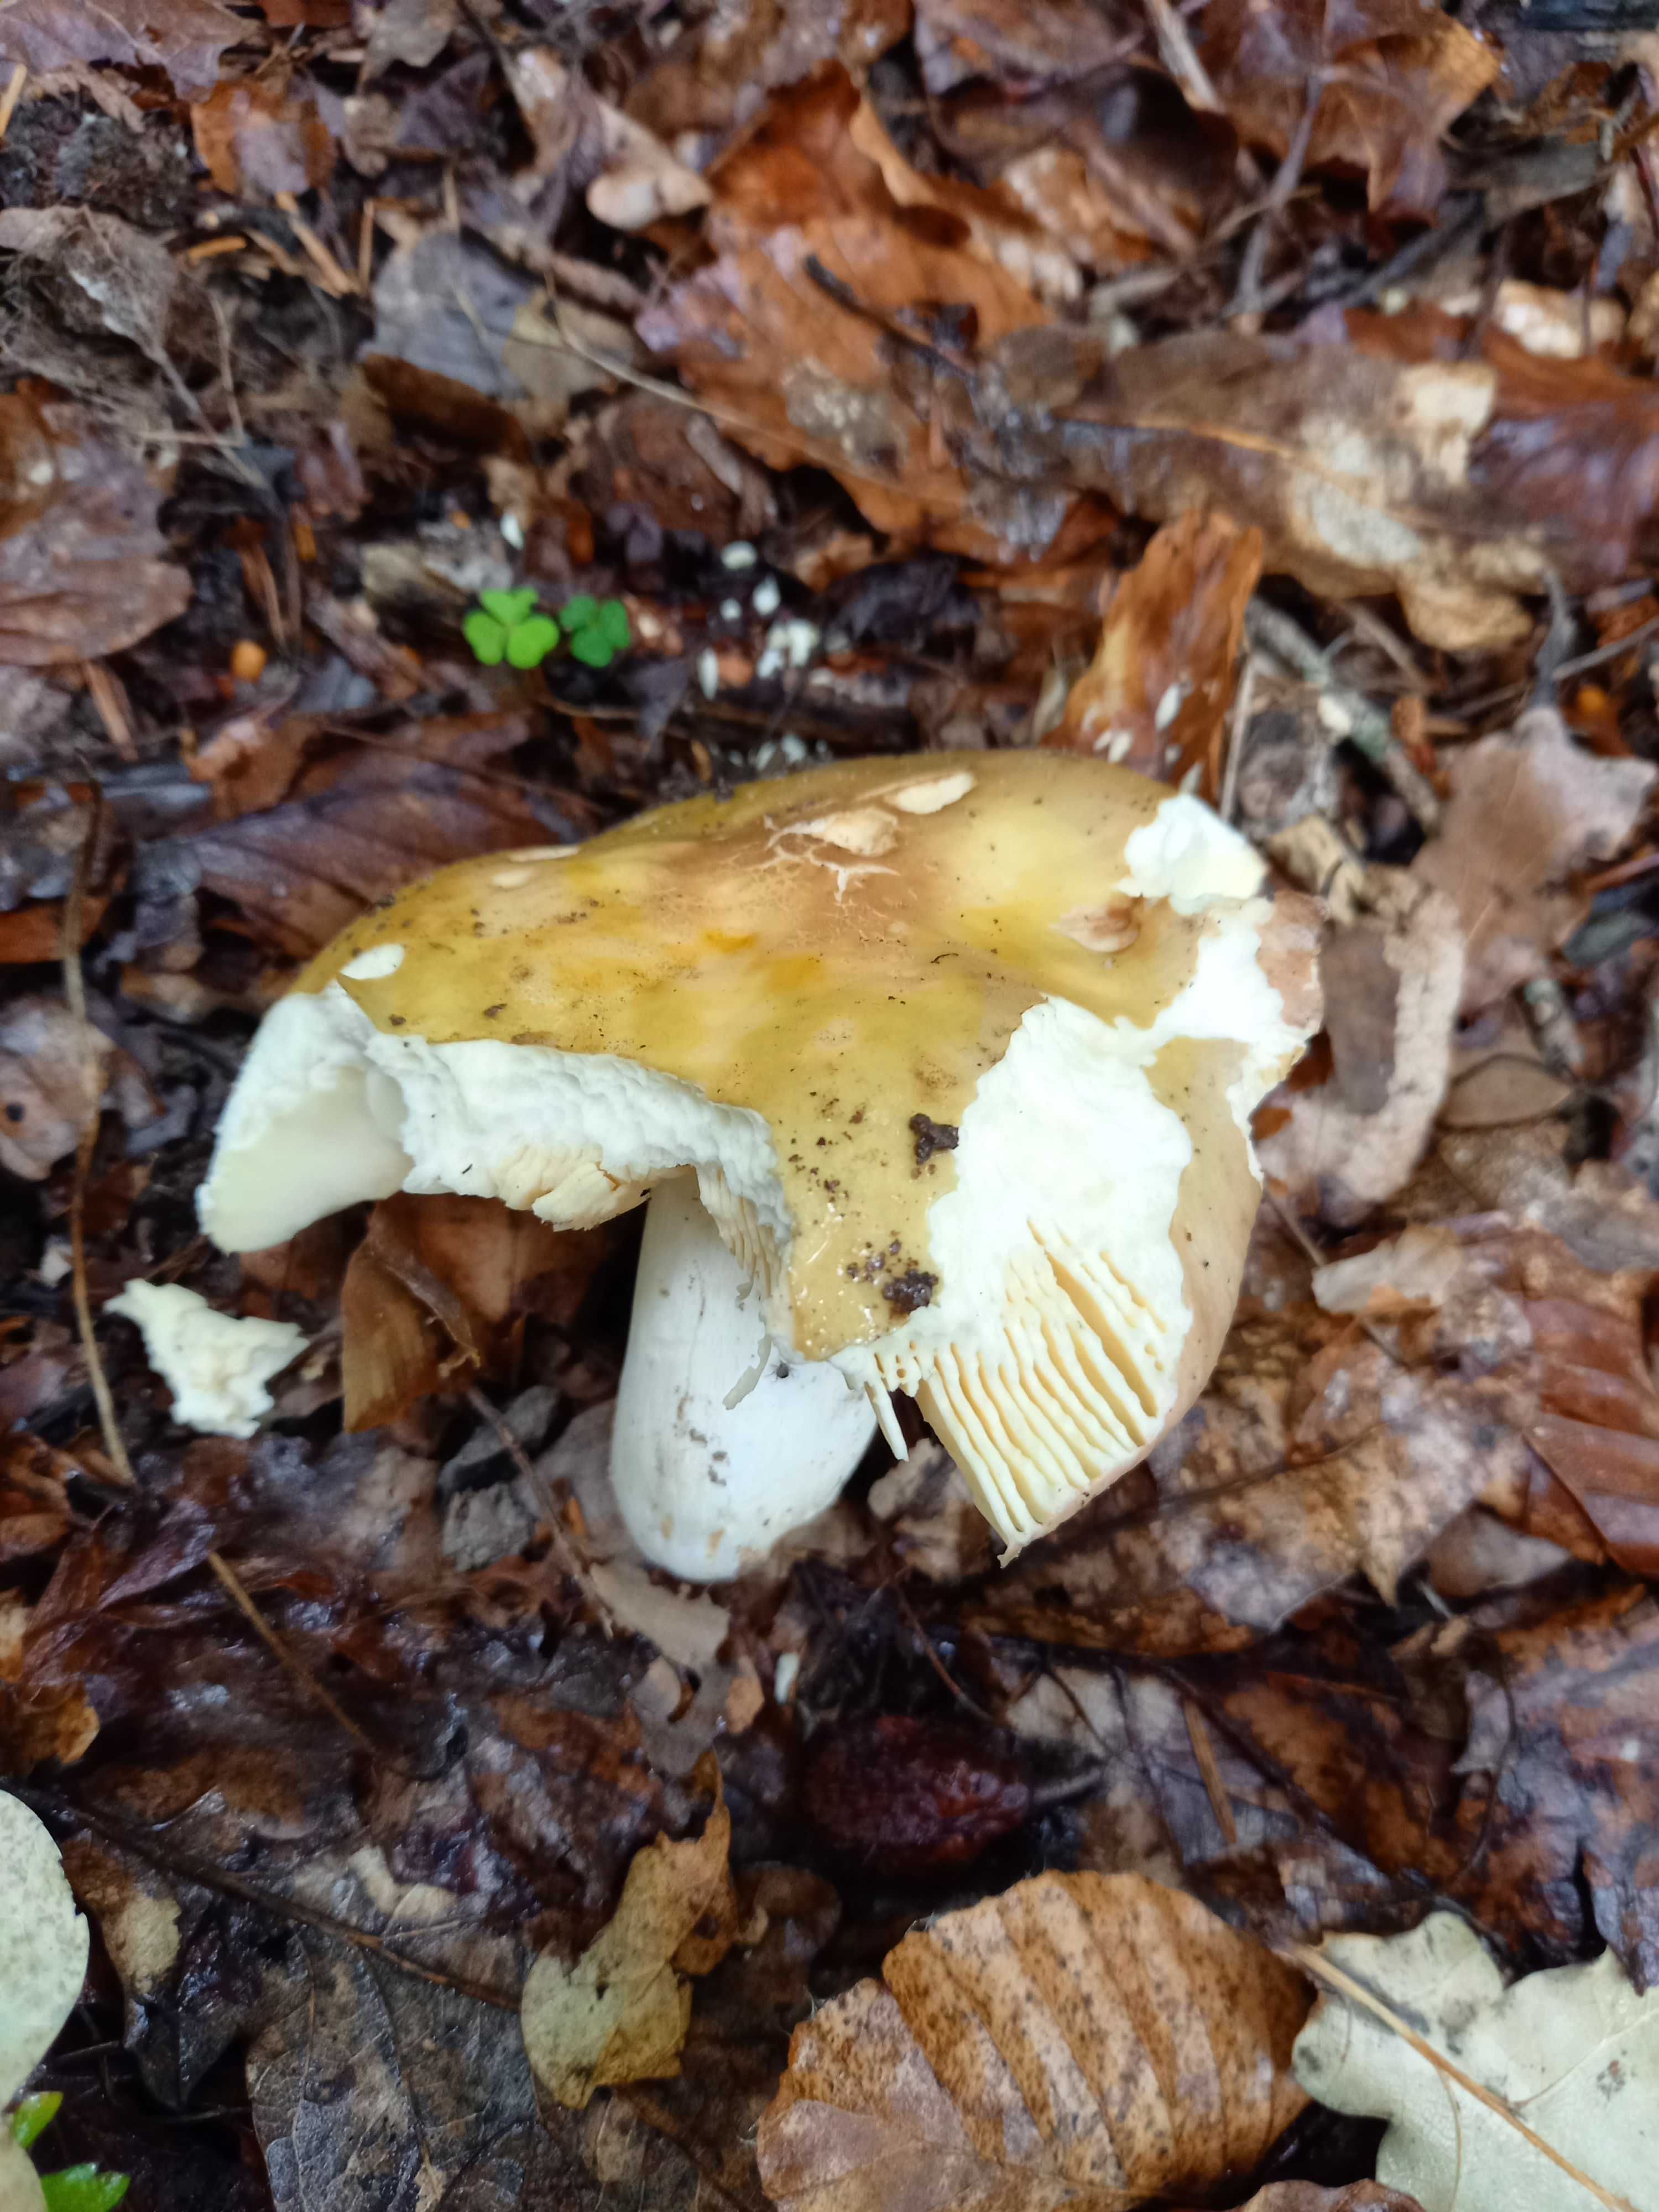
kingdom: Fungi
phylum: Basidiomycota
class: Agaricomycetes
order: Russulales
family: Russulaceae
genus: Russula
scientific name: Russula romellii
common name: romells skørhat
